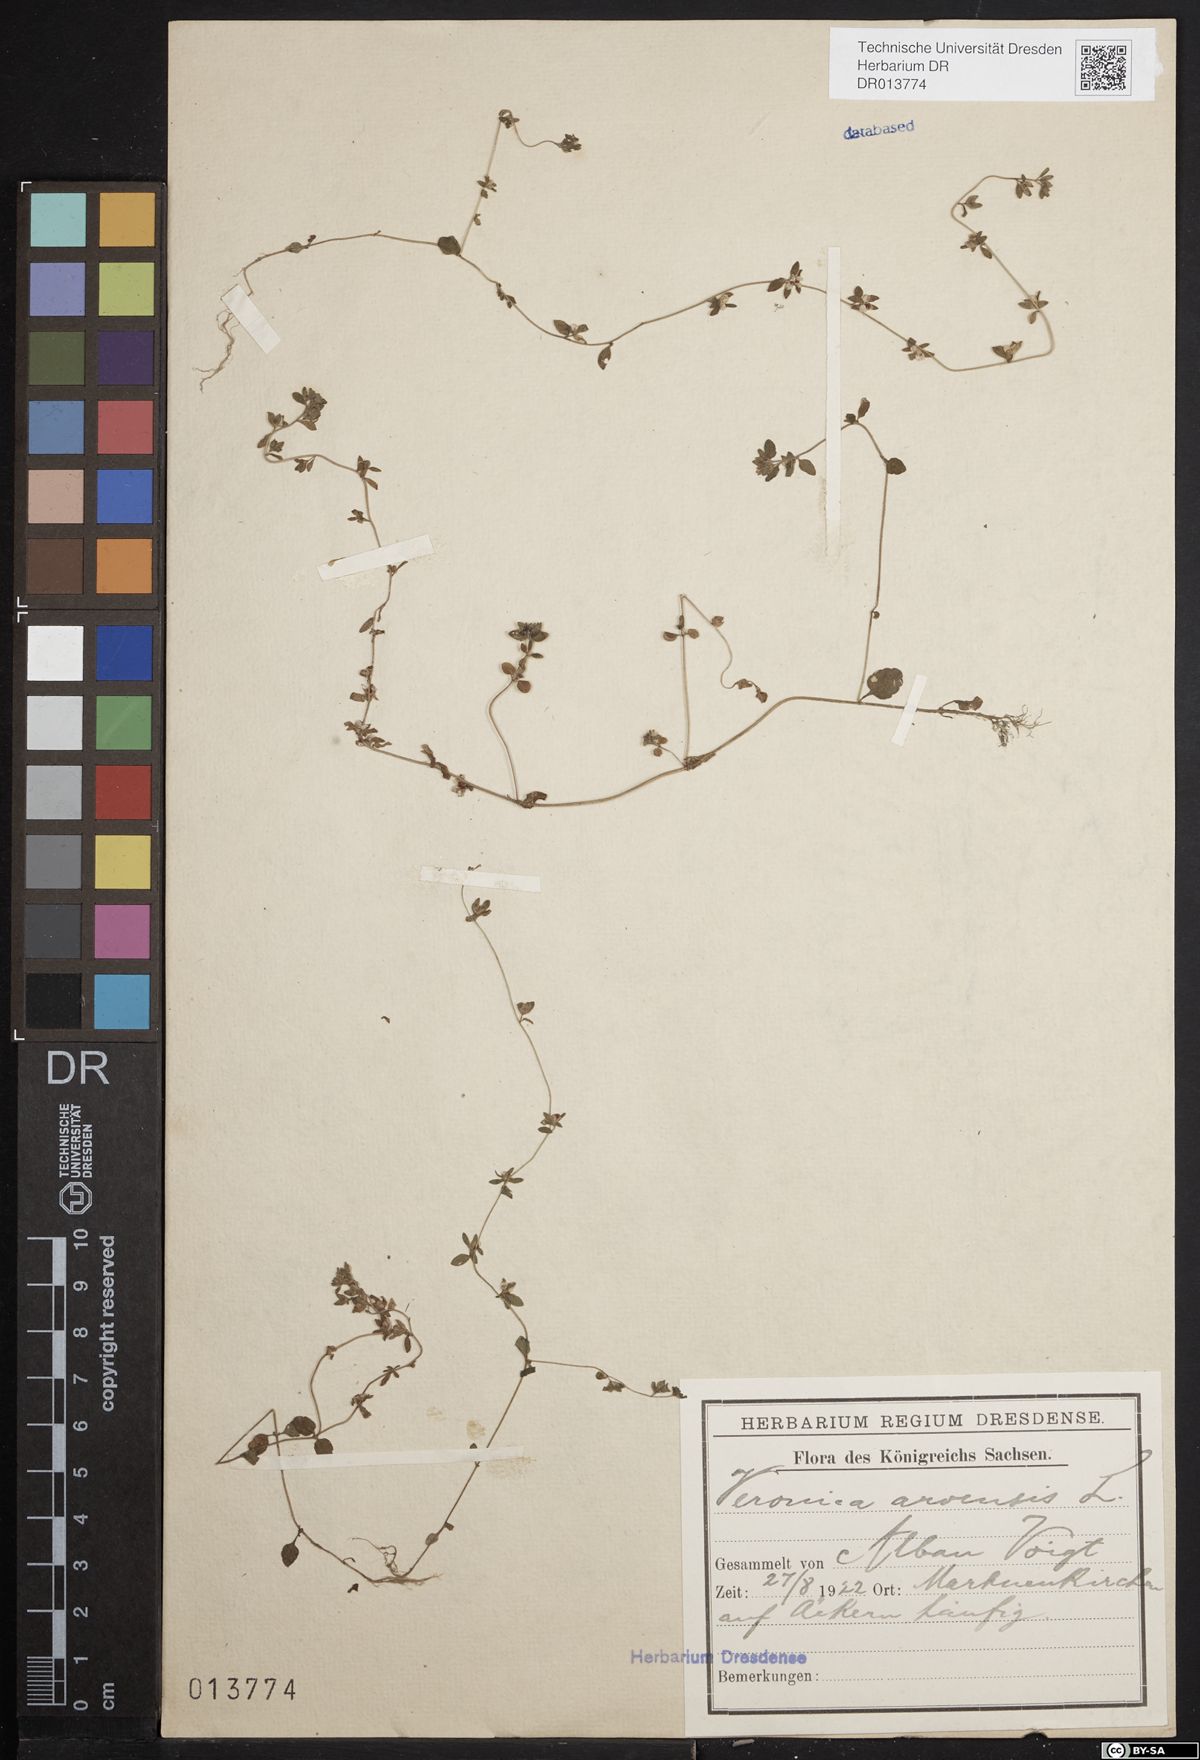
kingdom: Plantae
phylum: Tracheophyta
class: Magnoliopsida
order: Lamiales
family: Plantaginaceae
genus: Veronica
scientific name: Veronica arvensis
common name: Corn speedwell
